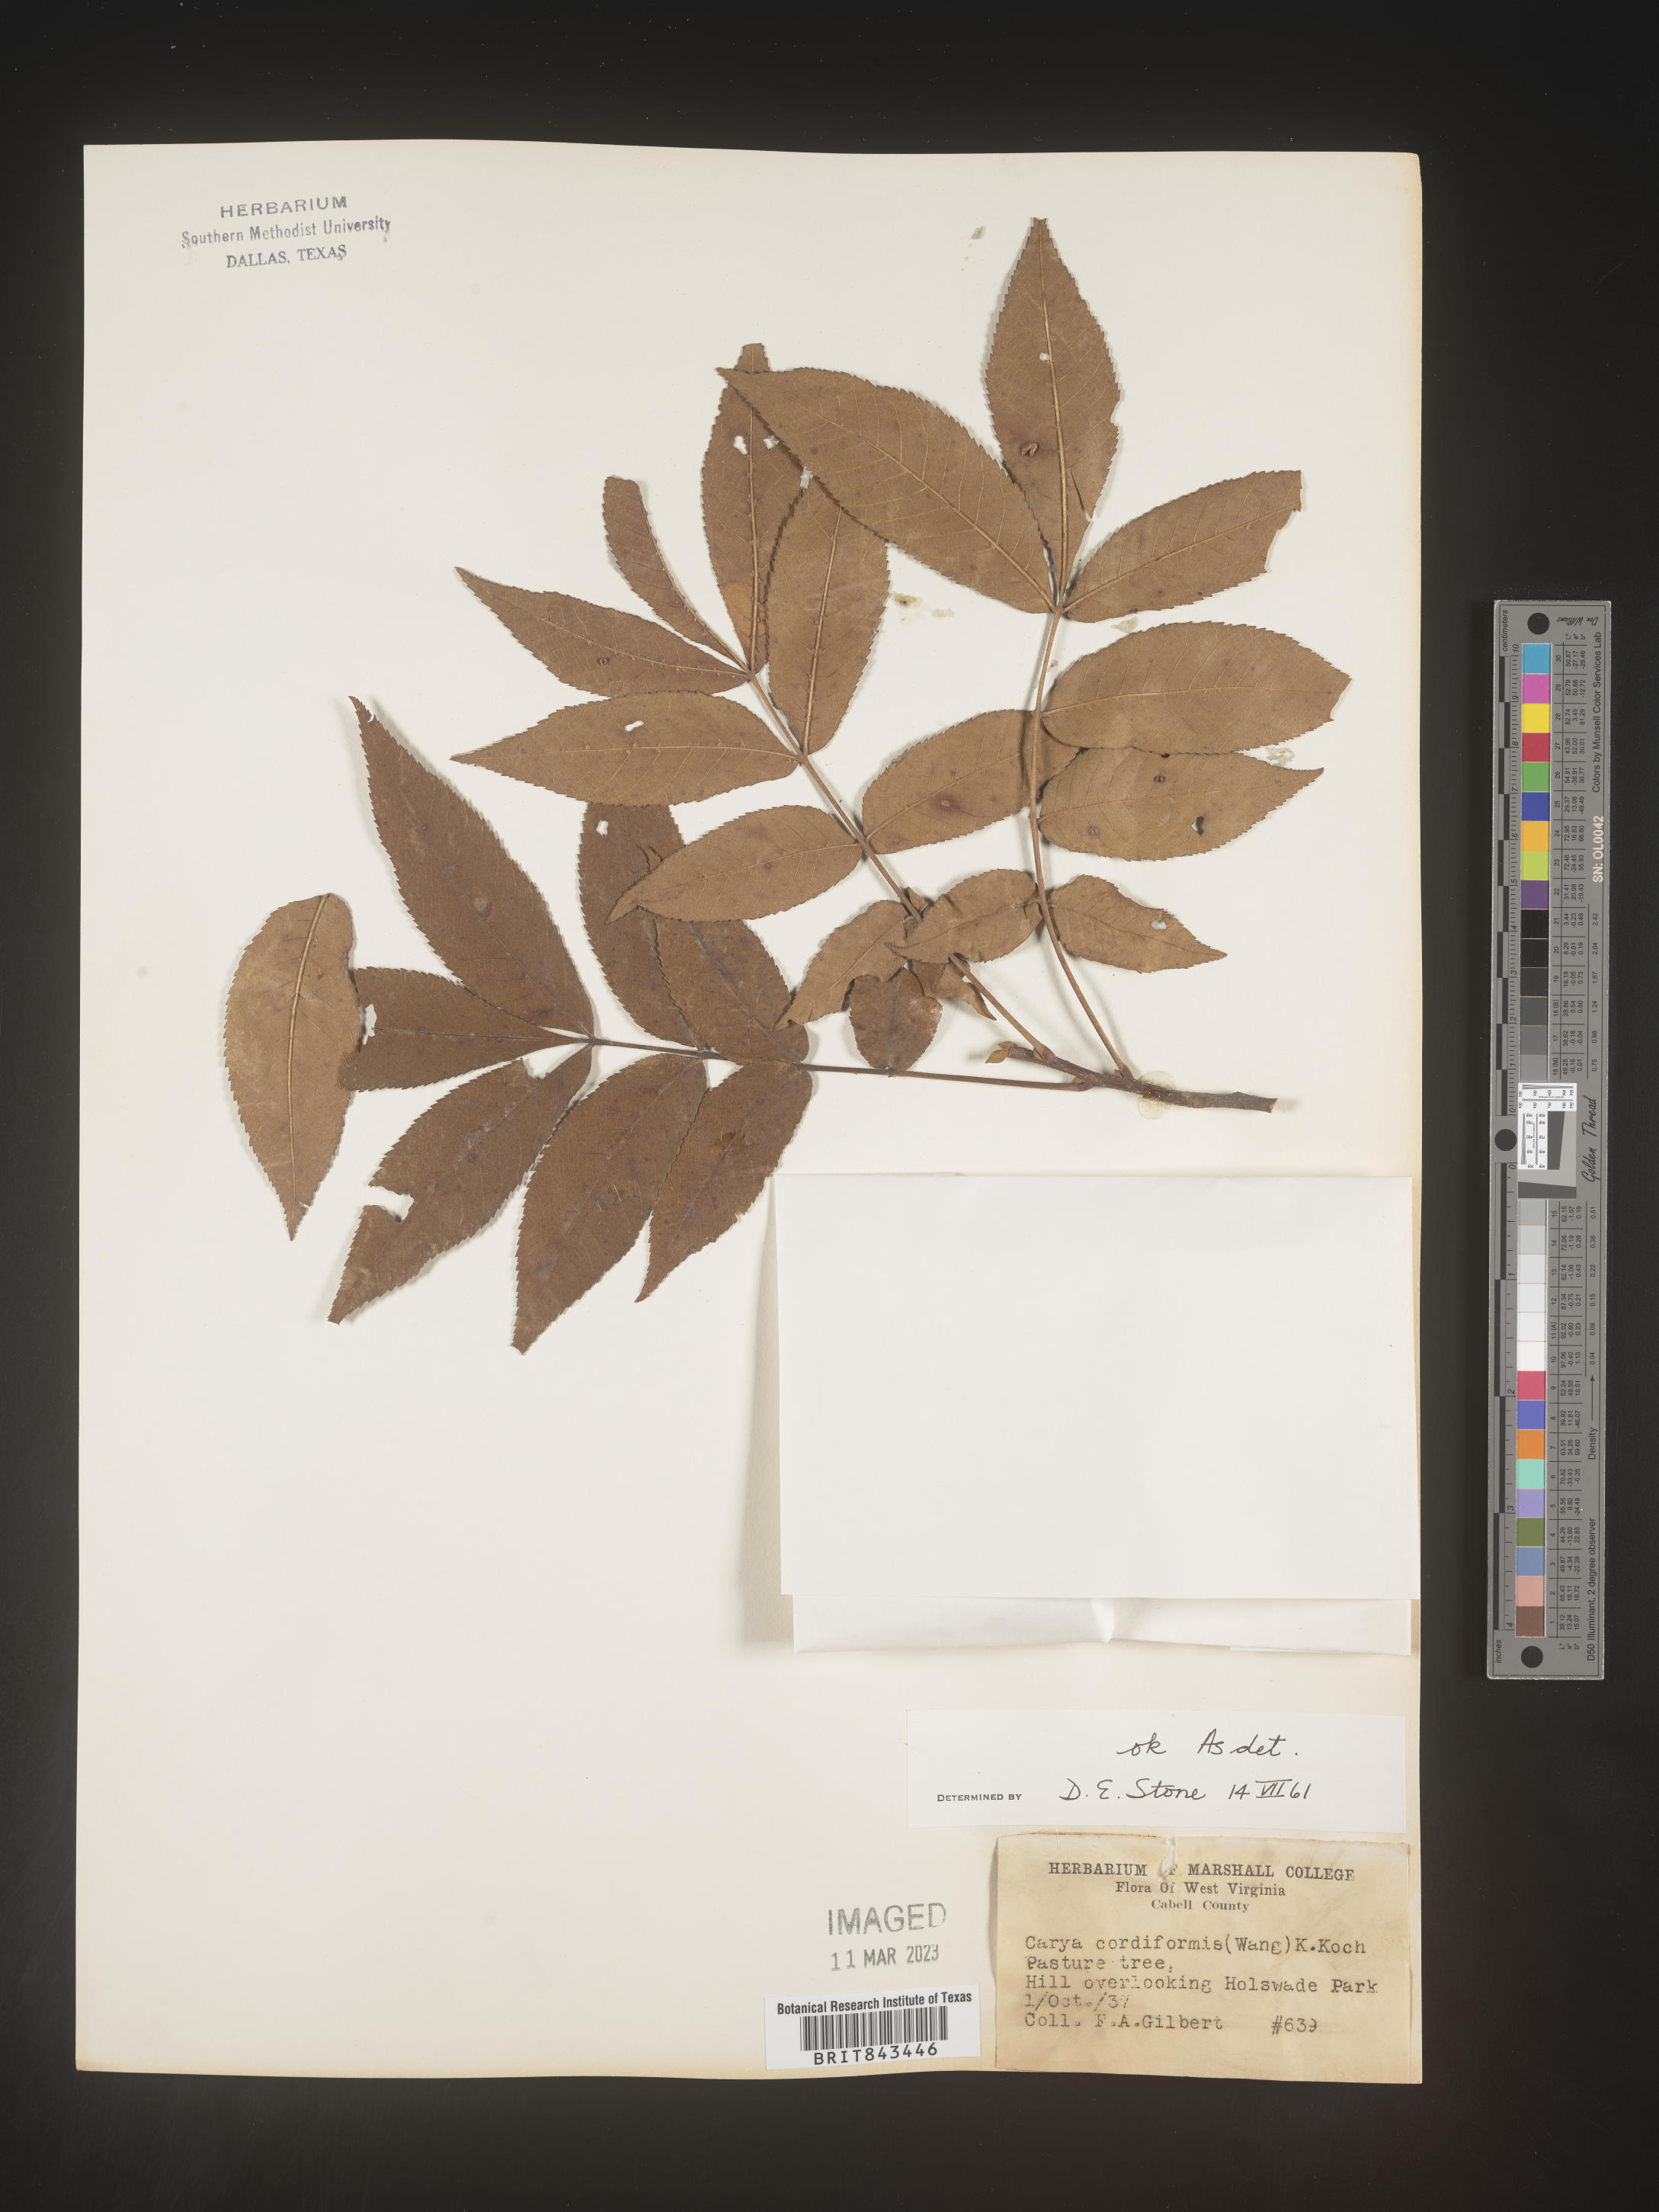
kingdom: Plantae
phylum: Tracheophyta
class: Magnoliopsida
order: Fagales
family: Juglandaceae
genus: Carya
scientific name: Carya cordiformis
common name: Bitternut hickory
